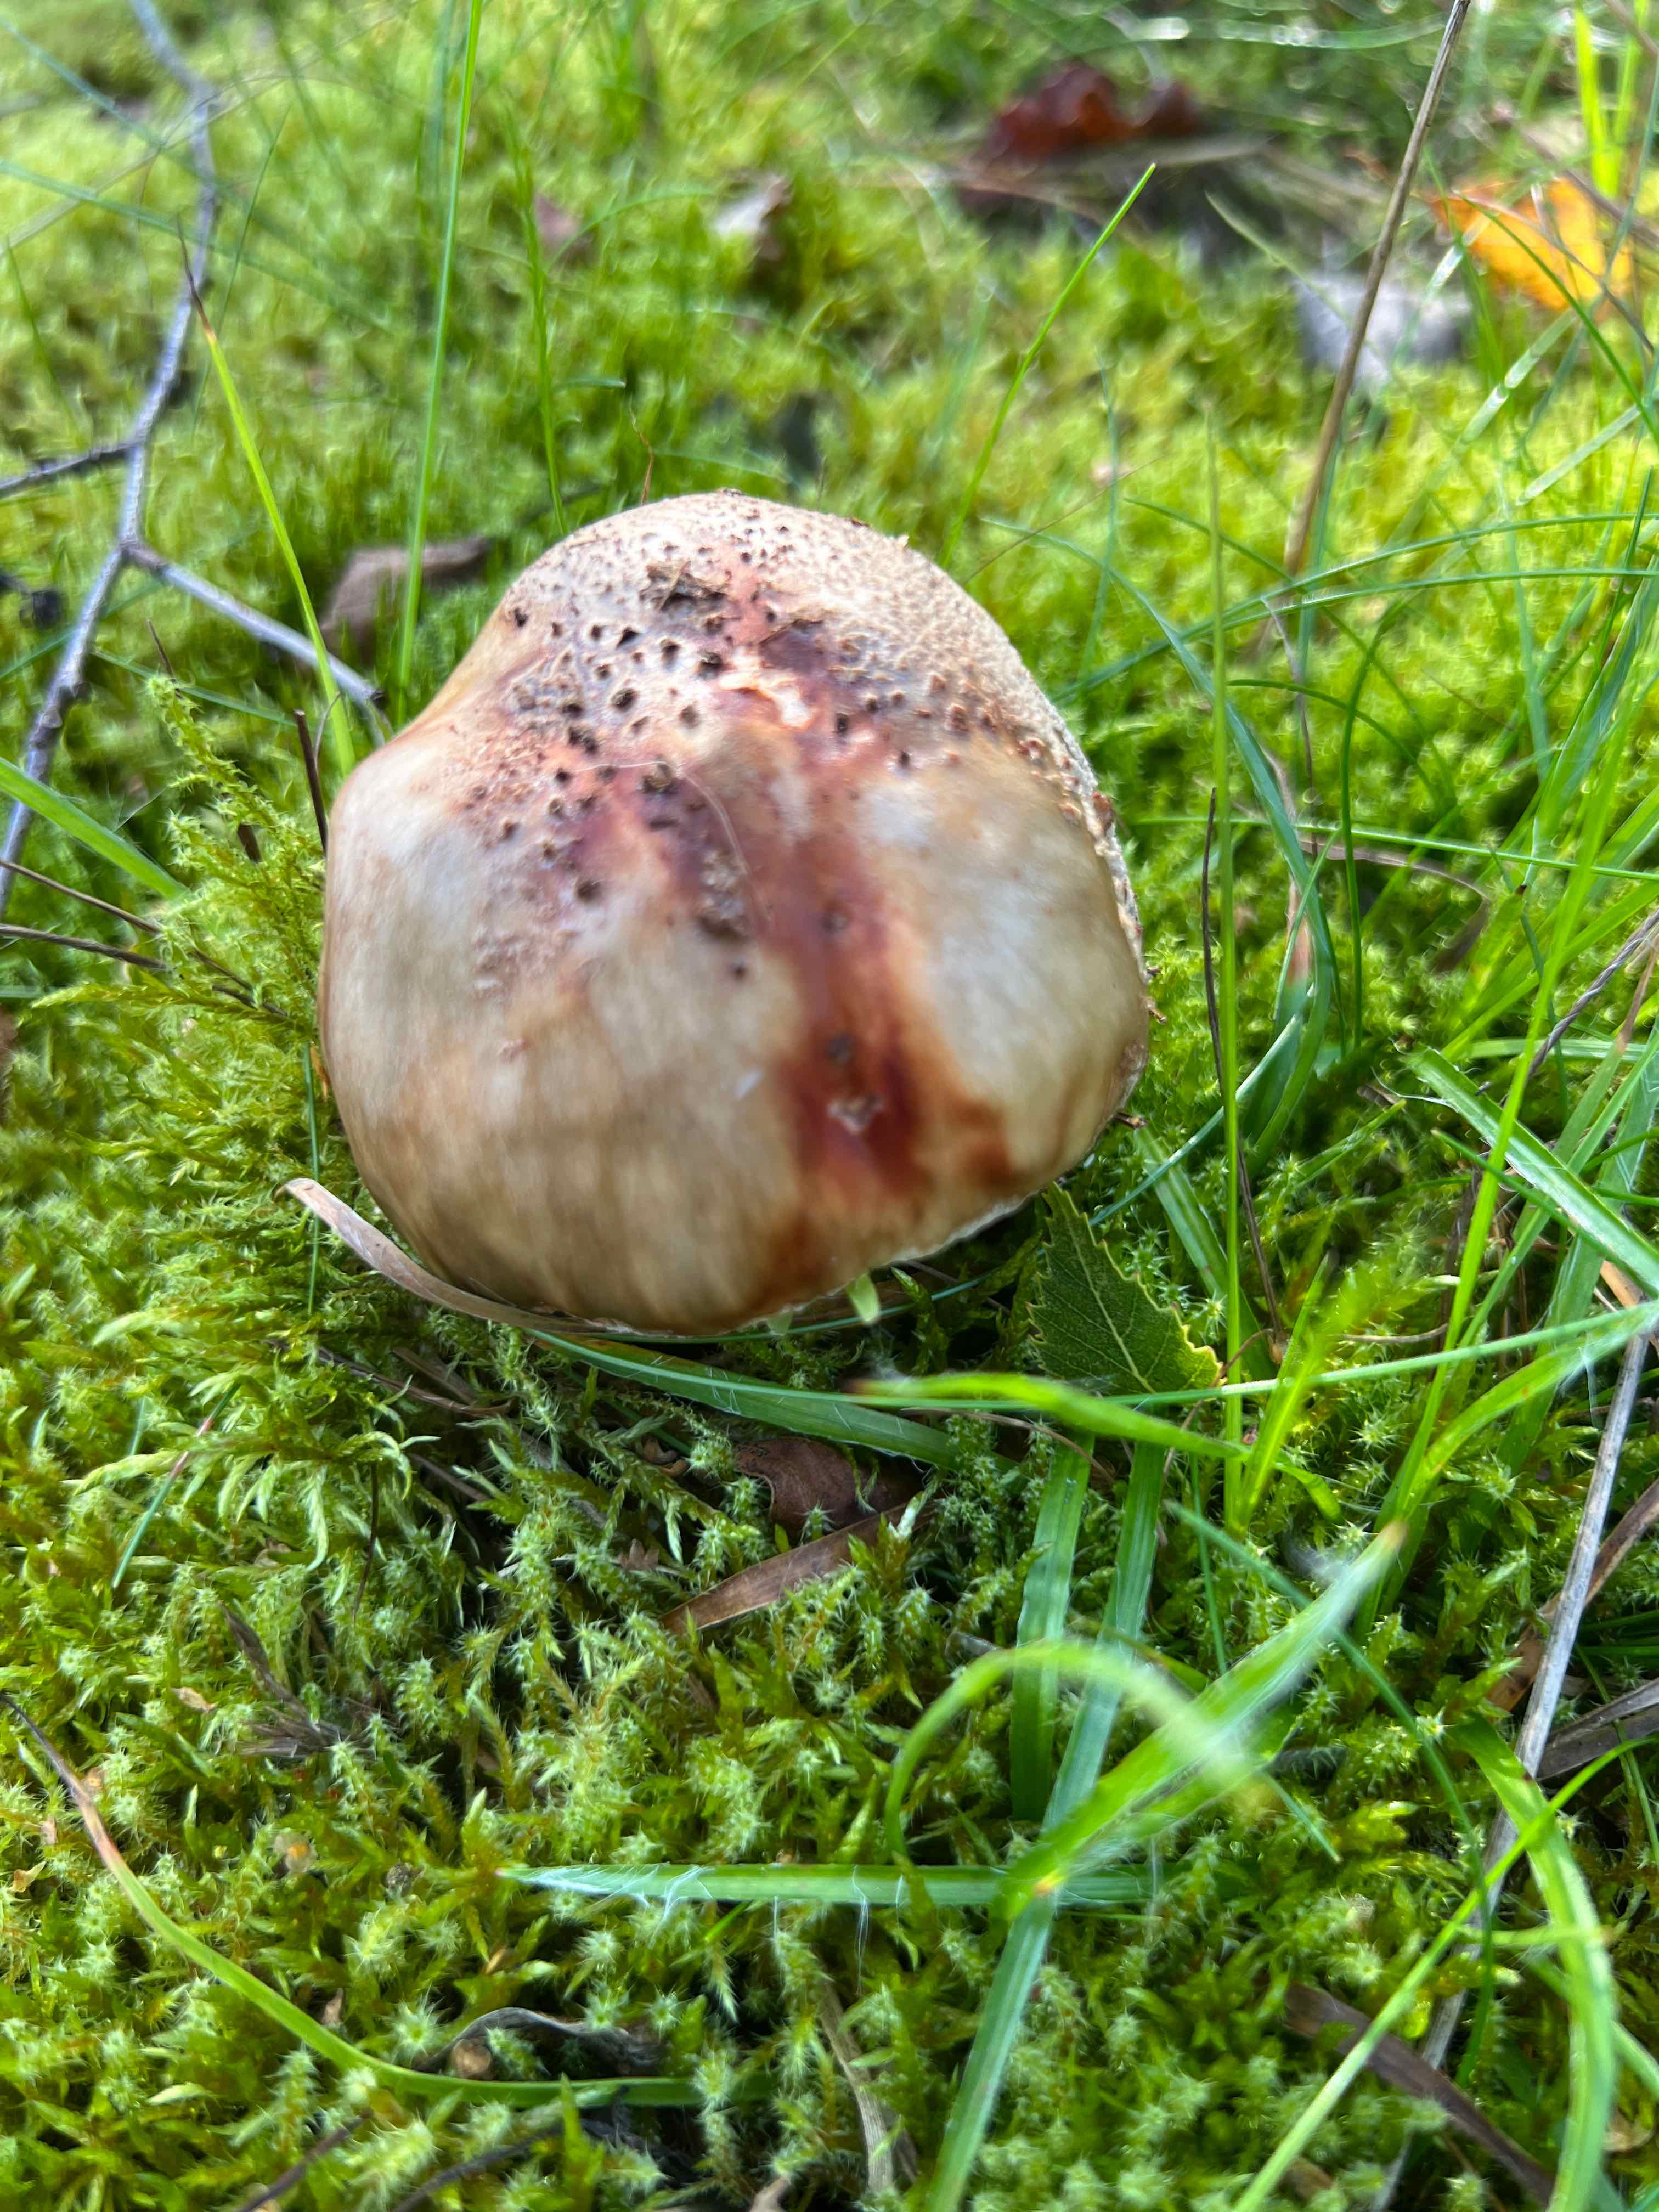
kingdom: Fungi
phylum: Basidiomycota
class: Agaricomycetes
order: Agaricales
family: Amanitaceae
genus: Amanita
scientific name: Amanita rubescens
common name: rødmende fluesvamp
